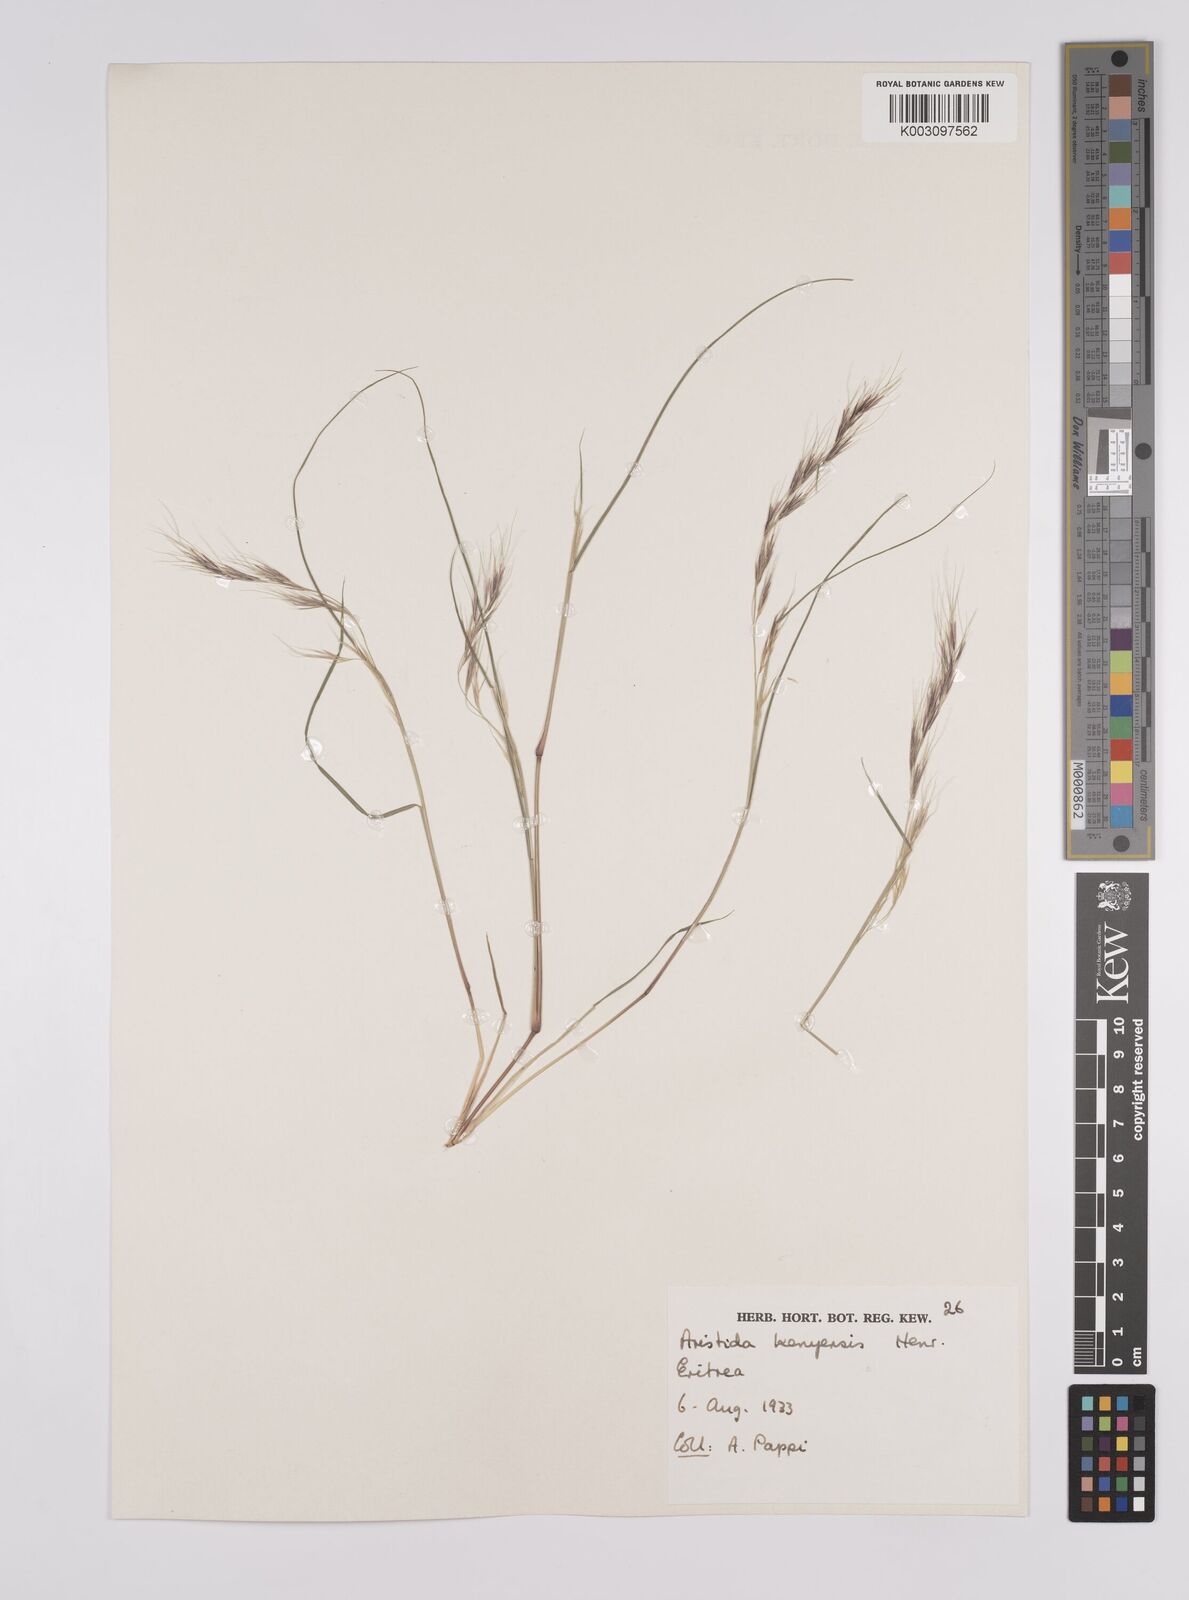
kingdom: Plantae
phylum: Tracheophyta
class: Liliopsida
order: Poales
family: Poaceae
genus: Aristida
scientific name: Aristida kenyensis
